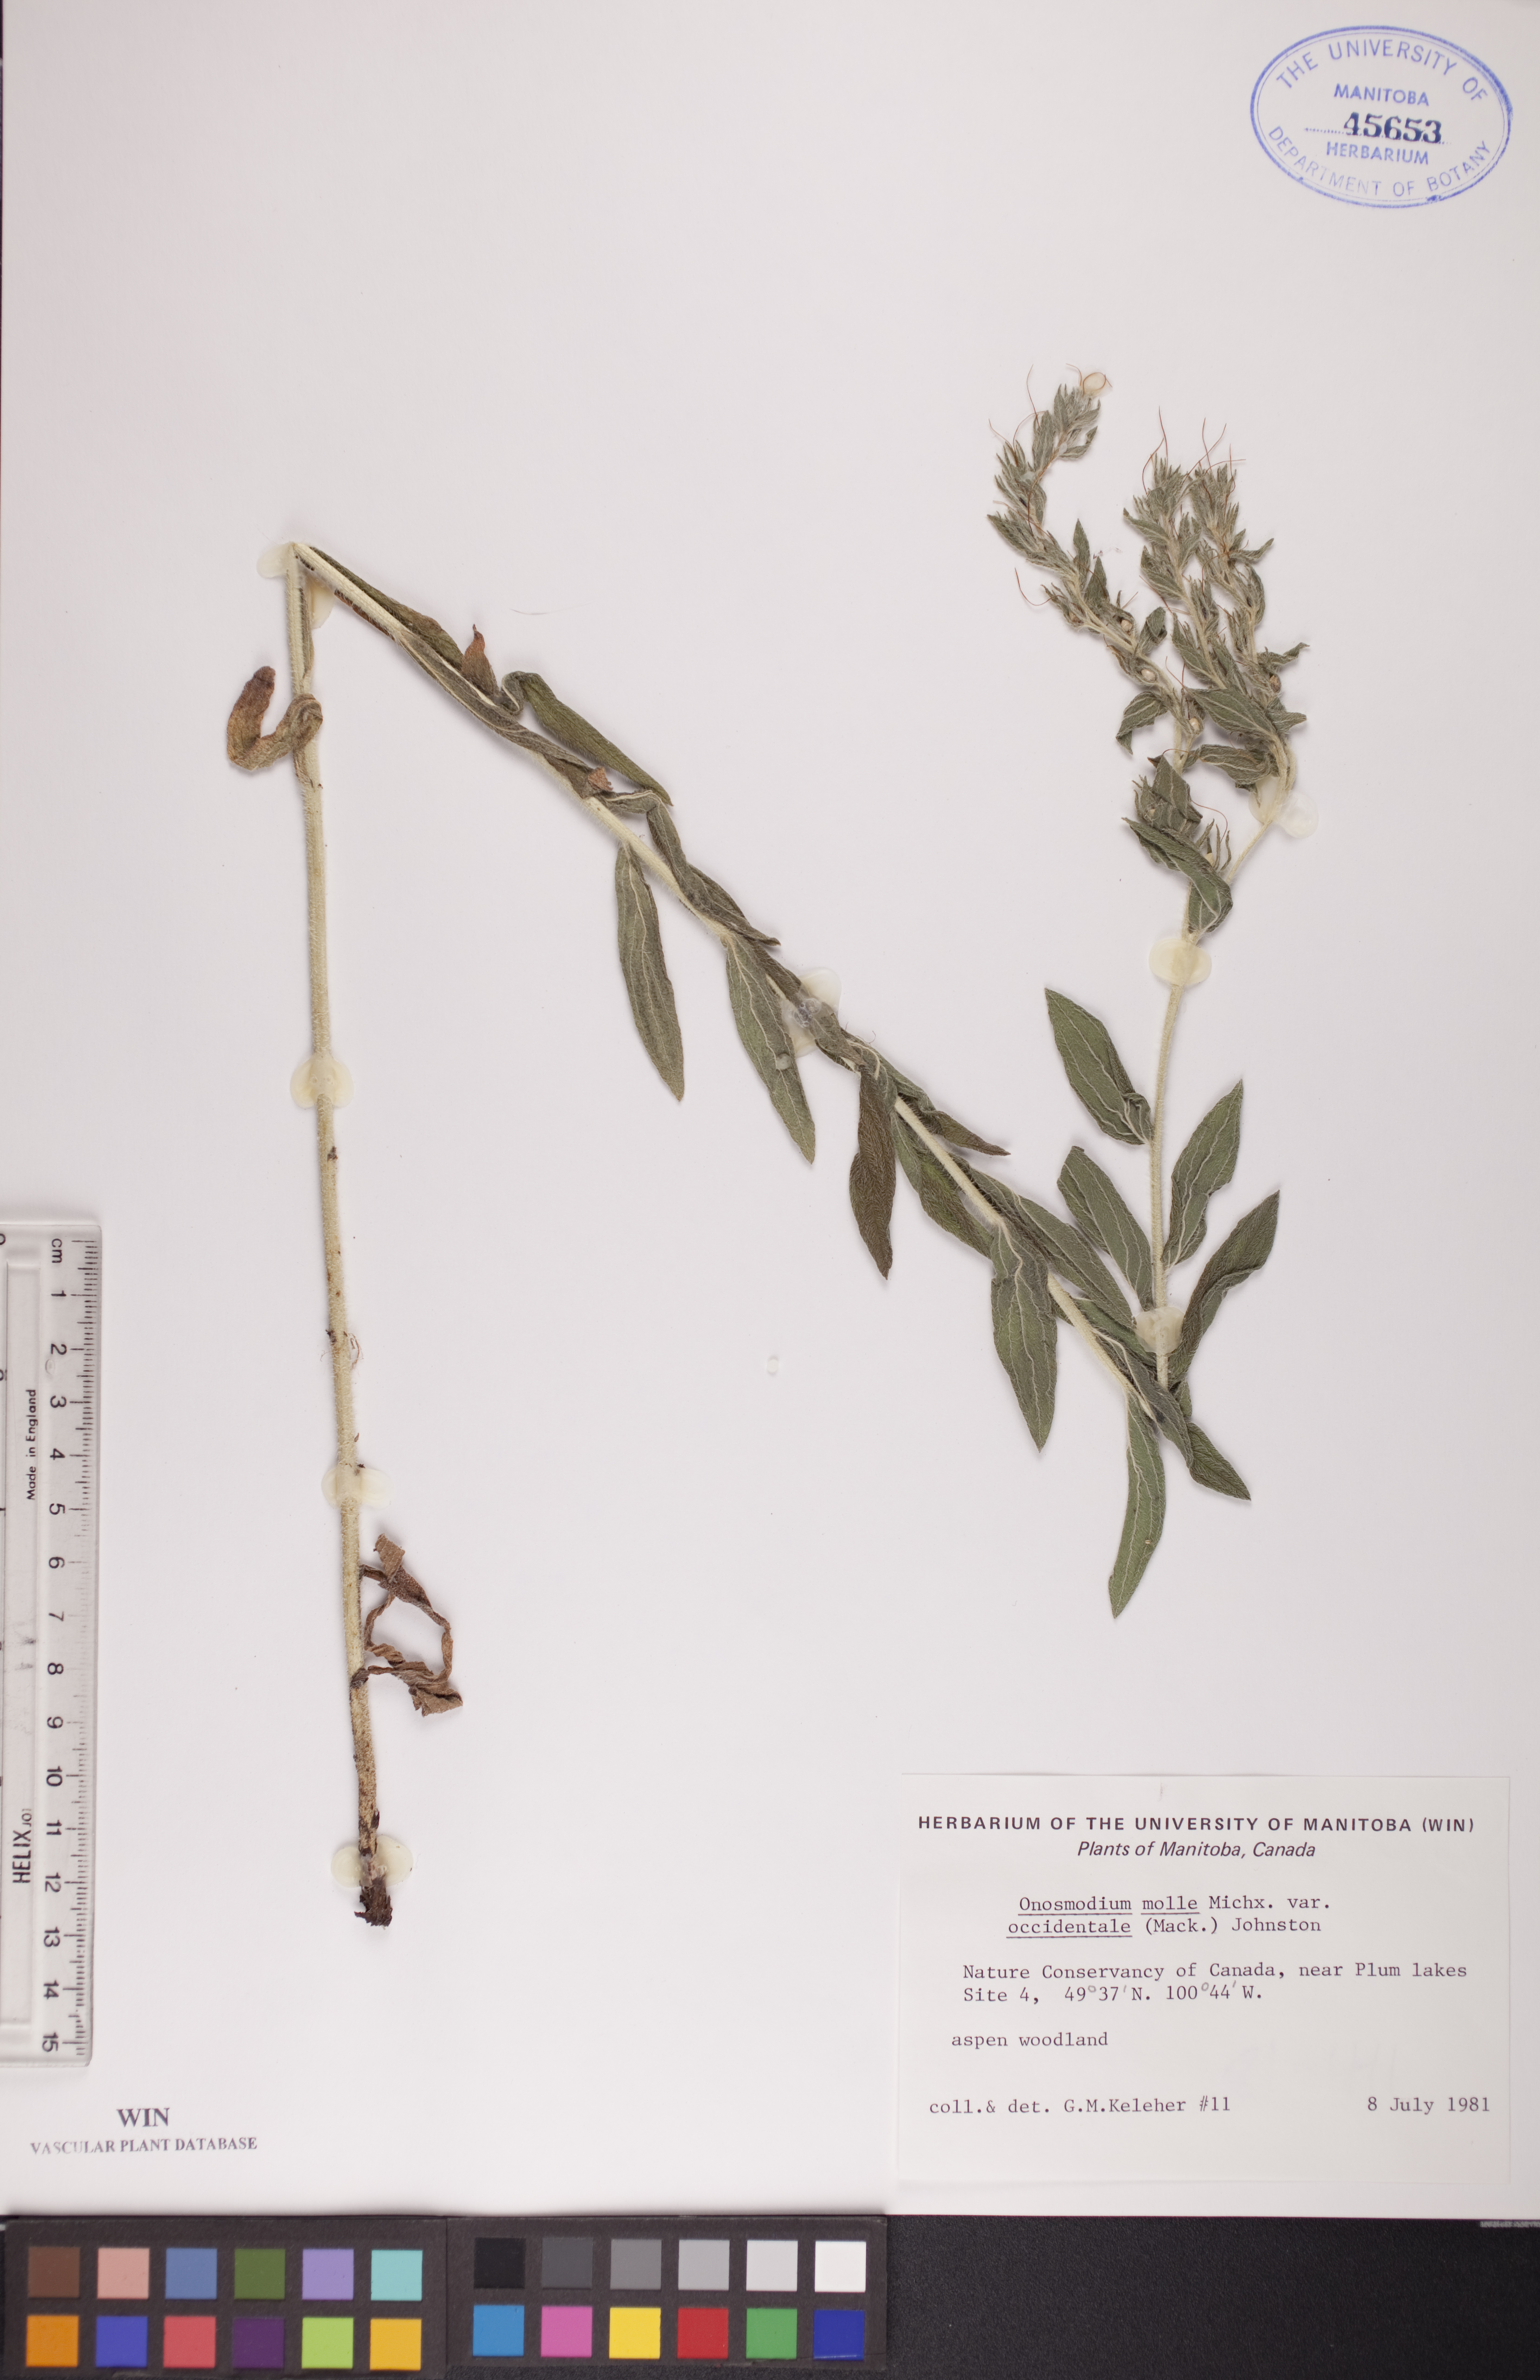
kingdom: Plantae
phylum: Tracheophyta
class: Magnoliopsida
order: Boraginales
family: Boraginaceae
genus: Lithospermum
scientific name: Lithospermum occidentale
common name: Western false gromwell
